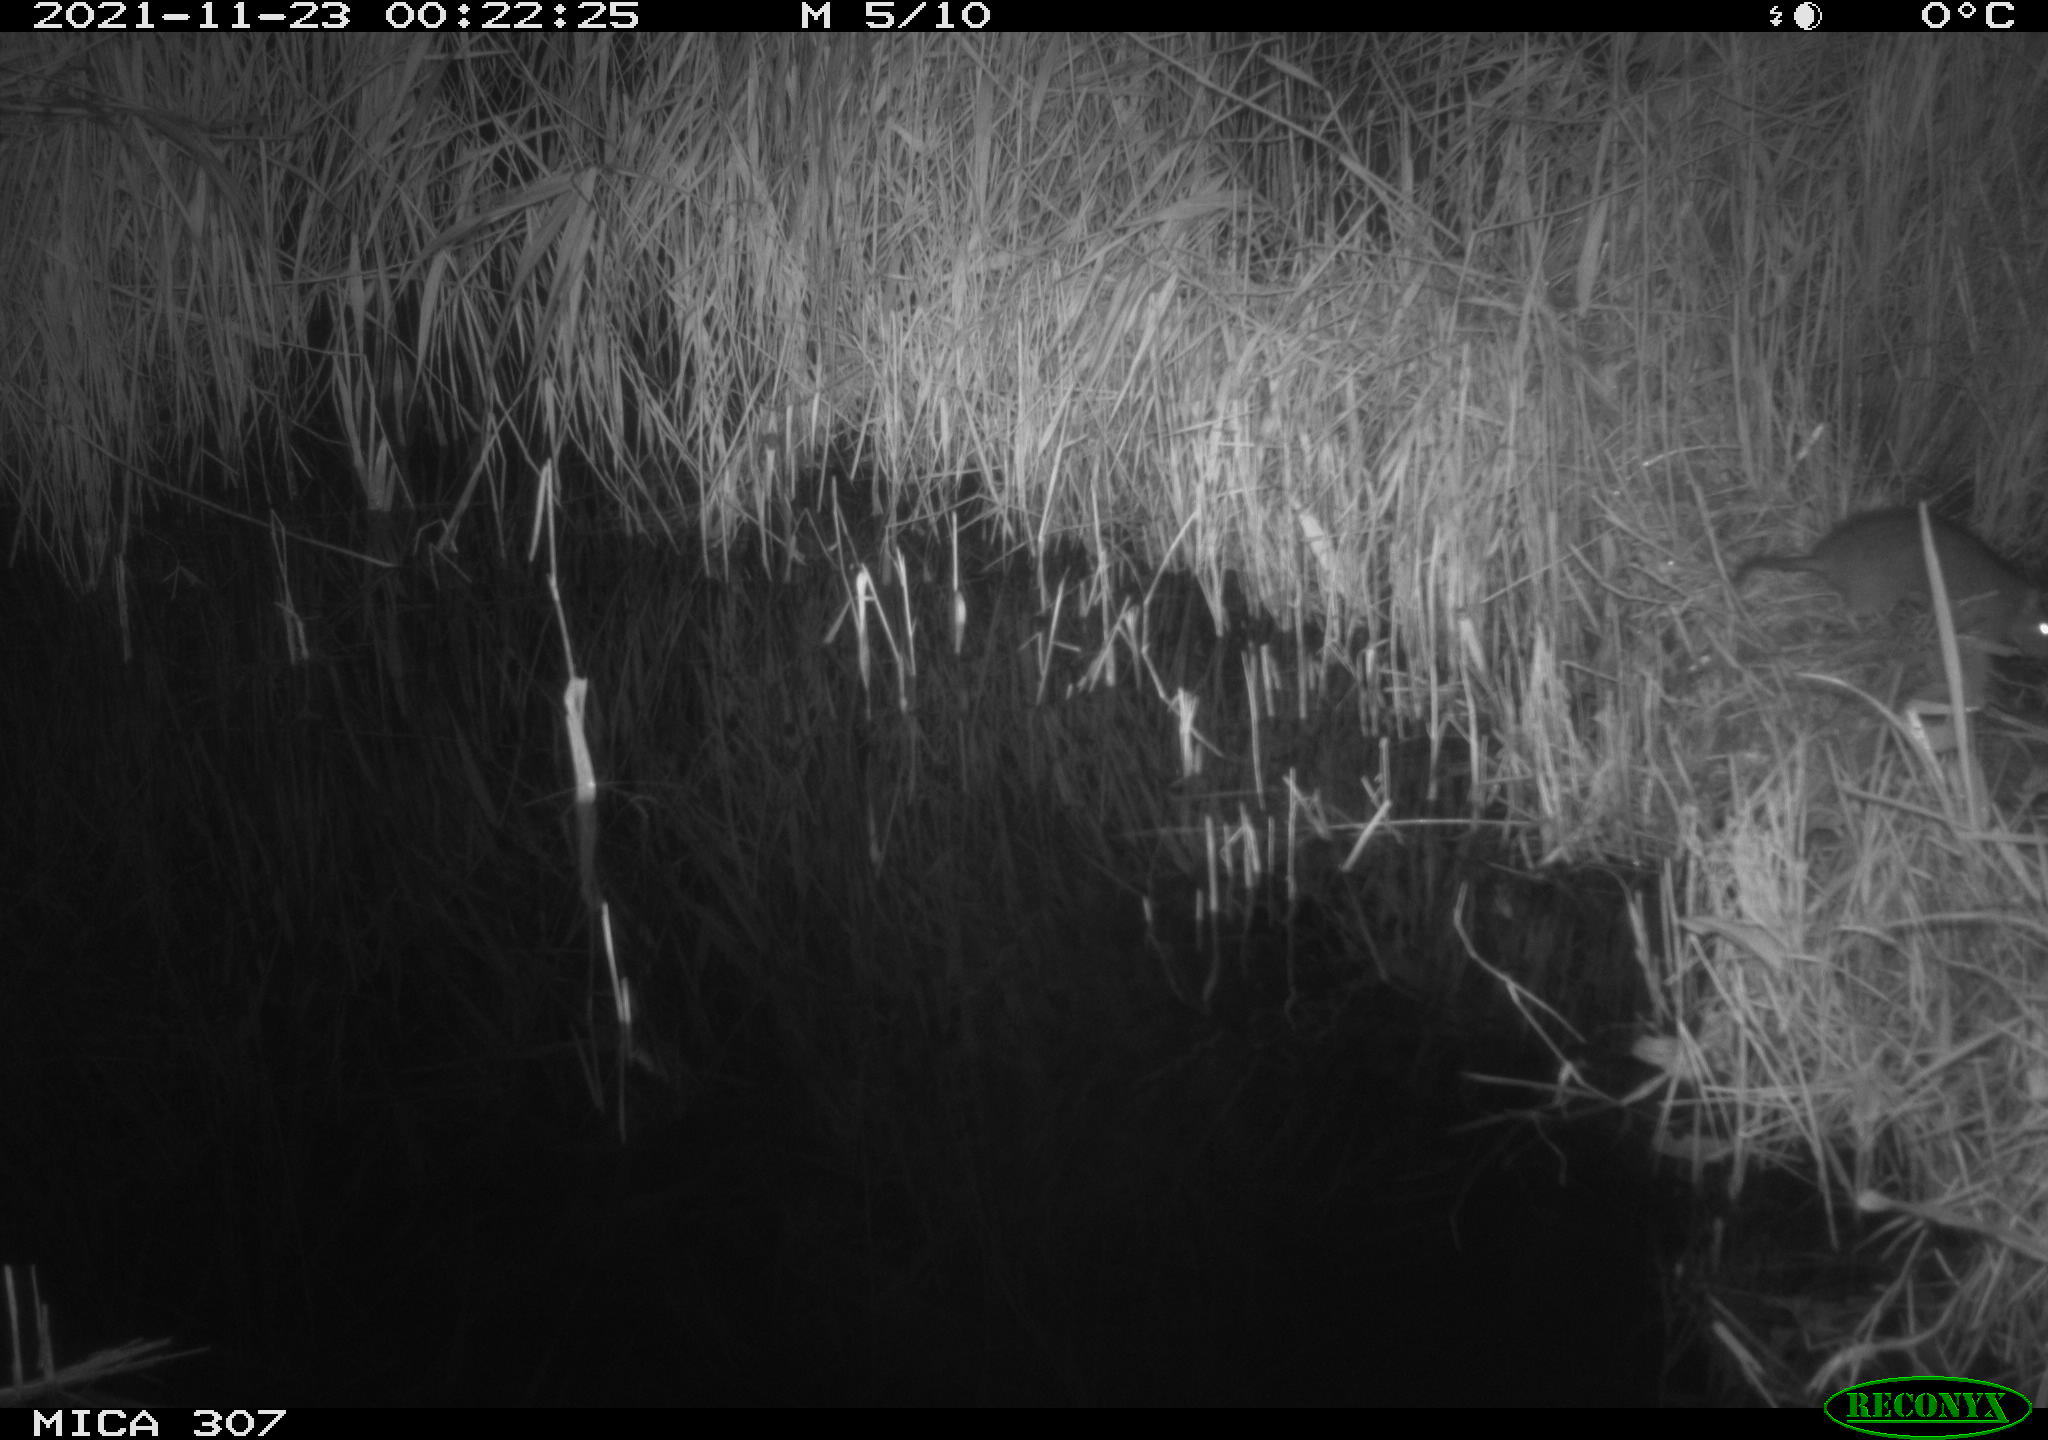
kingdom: Animalia
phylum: Chordata
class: Mammalia
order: Rodentia
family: Muridae
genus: Rattus
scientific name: Rattus norvegicus
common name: Brown rat
